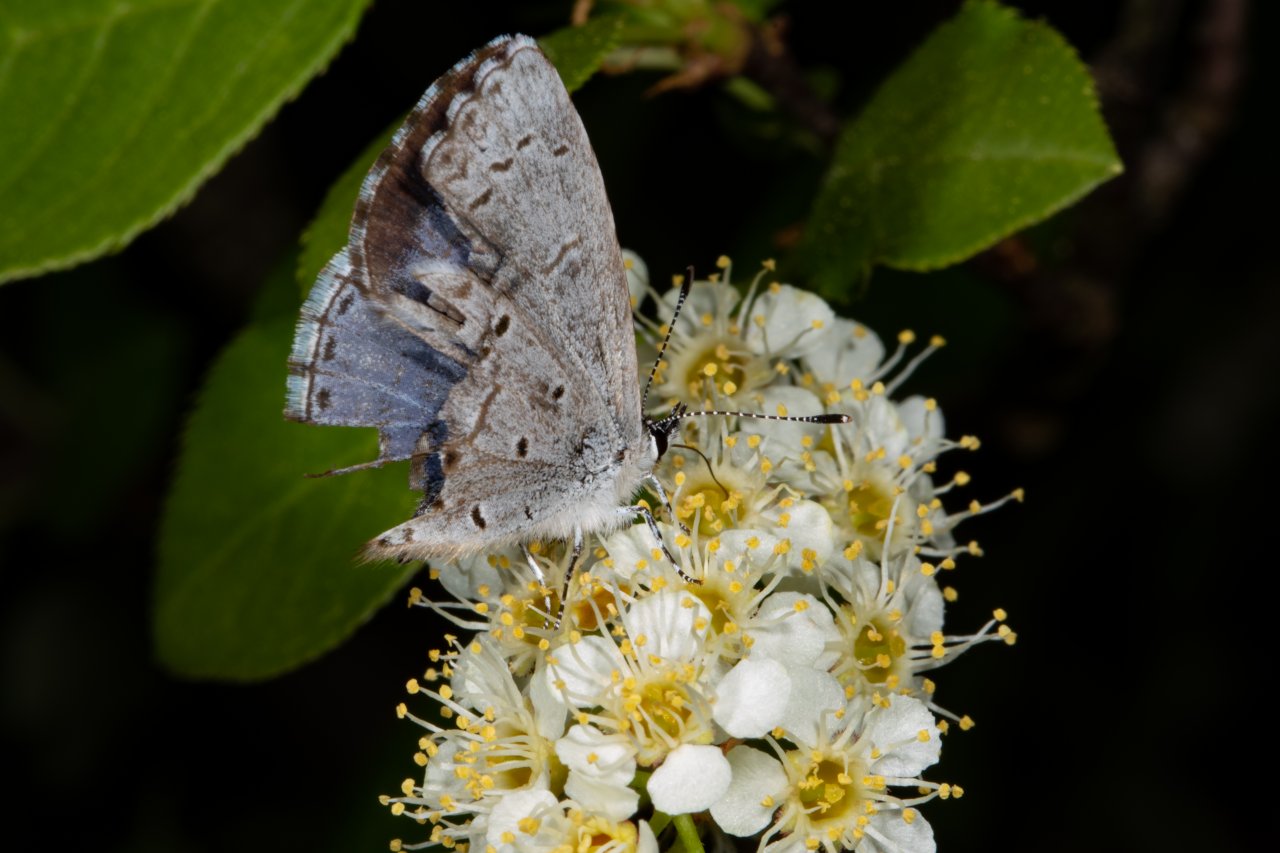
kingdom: Animalia
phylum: Arthropoda
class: Insecta
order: Lepidoptera
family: Lycaenidae
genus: Celastrina
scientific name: Celastrina lucia
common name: Northern Spring Azure
